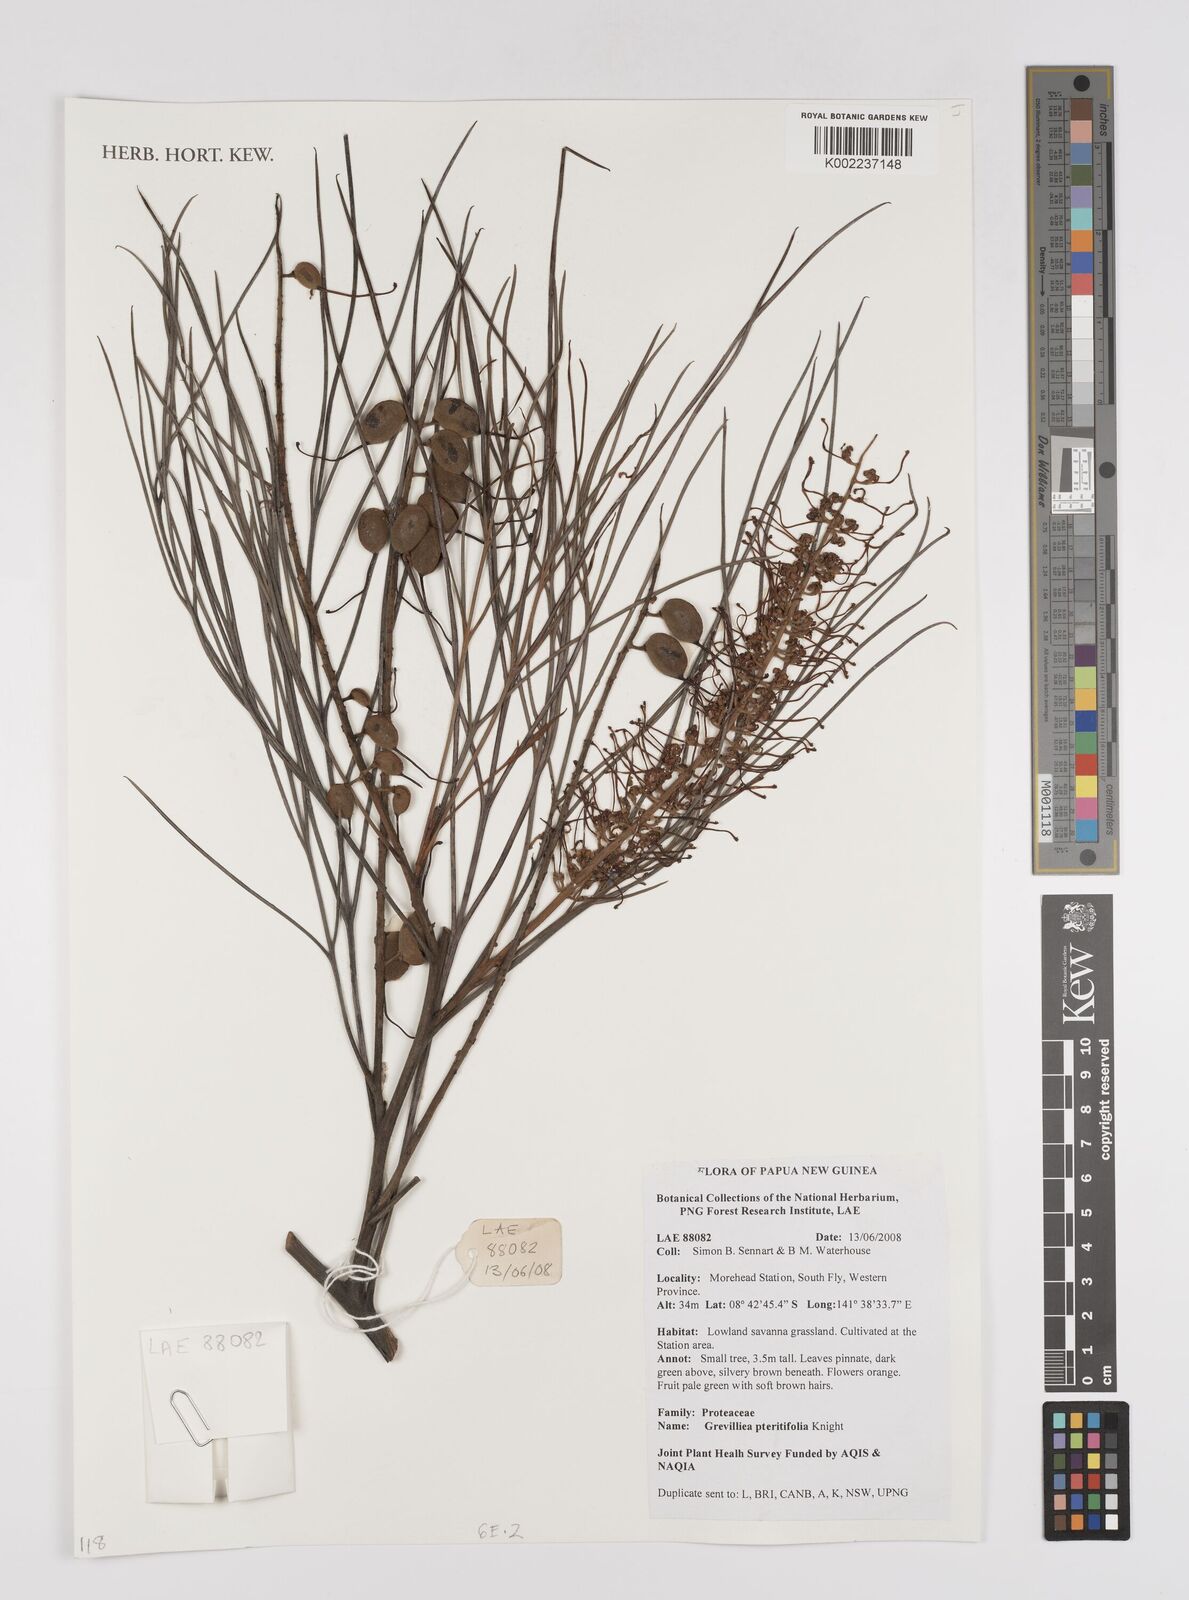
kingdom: Plantae
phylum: Tracheophyta
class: Magnoliopsida
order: Proteales
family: Proteaceae
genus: Grevillea
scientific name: Grevillea pteridifolia
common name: Golden grevillea
